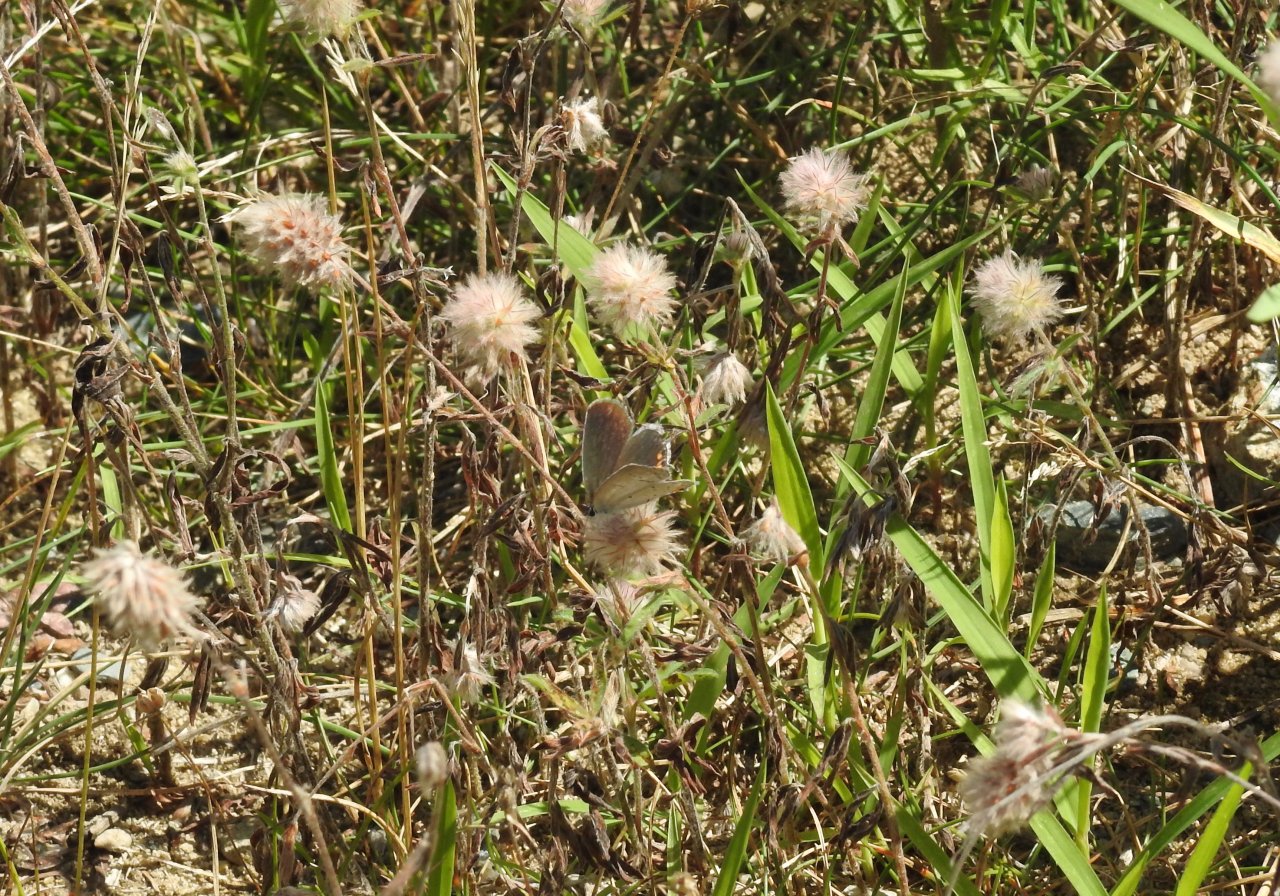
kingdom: Animalia
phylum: Arthropoda
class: Insecta
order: Lepidoptera
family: Lycaenidae
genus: Elkalyce
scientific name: Elkalyce comyntas
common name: Eastern Tailed-Blue
